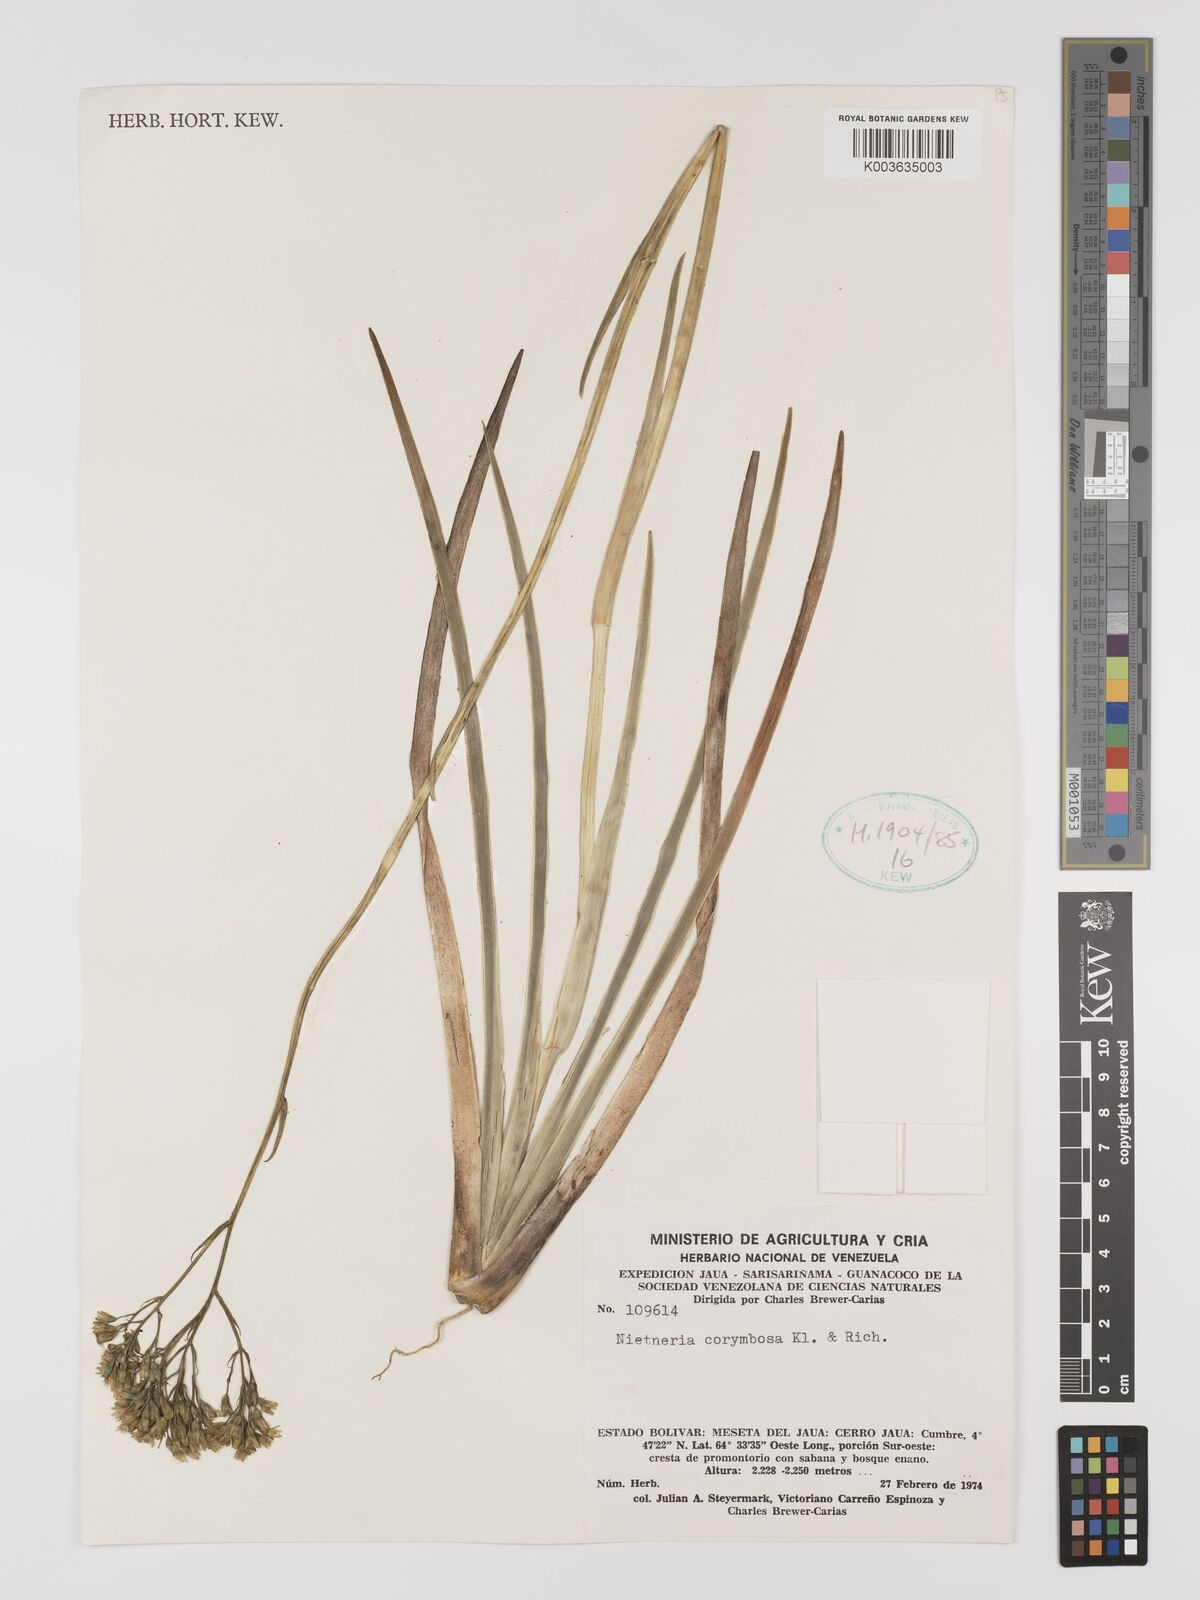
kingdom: Plantae
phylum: Tracheophyta
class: Liliopsida
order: Dioscoreales
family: Nartheciaceae
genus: Nietneria
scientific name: Nietneria corymbosa
